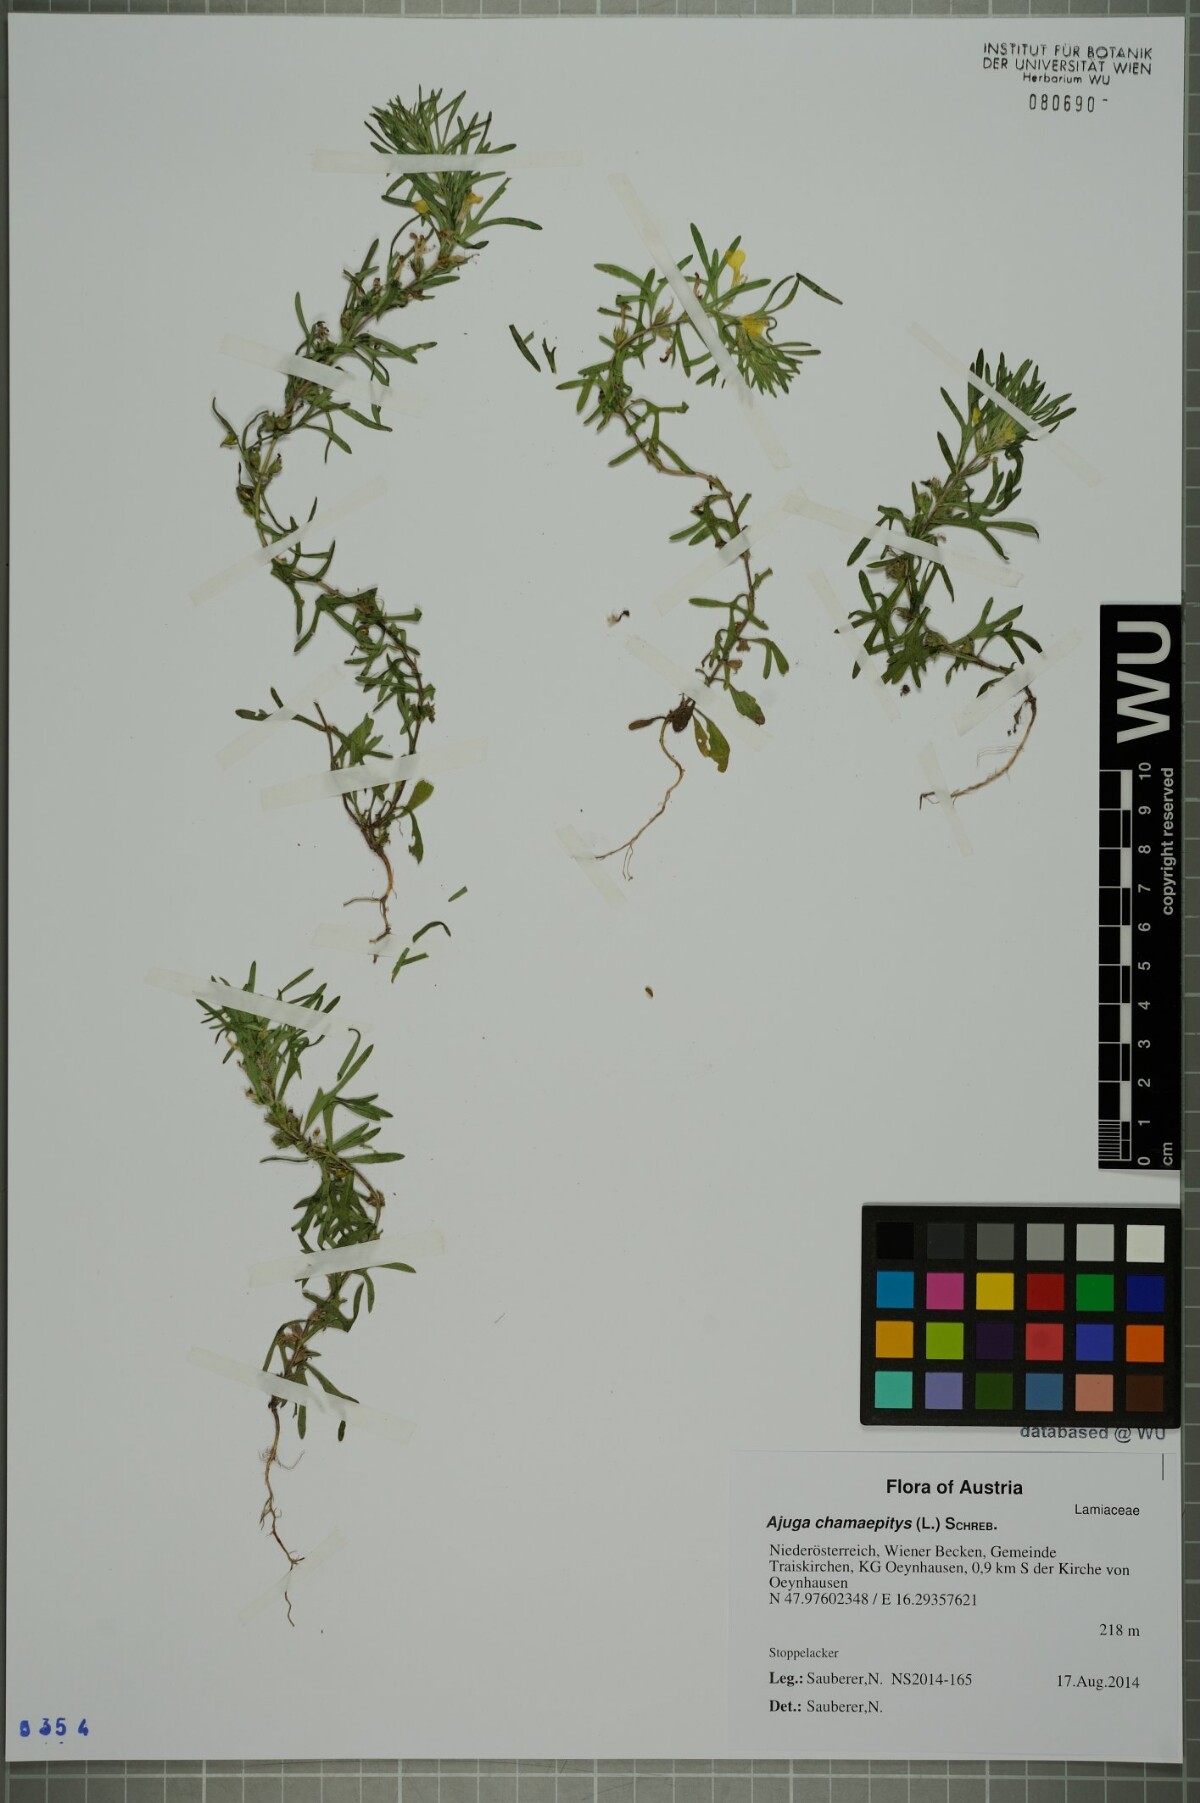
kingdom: Plantae
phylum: Tracheophyta
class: Magnoliopsida
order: Lamiales
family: Lamiaceae
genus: Ajuga
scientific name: Ajuga chamaepitys
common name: Ground-pine
